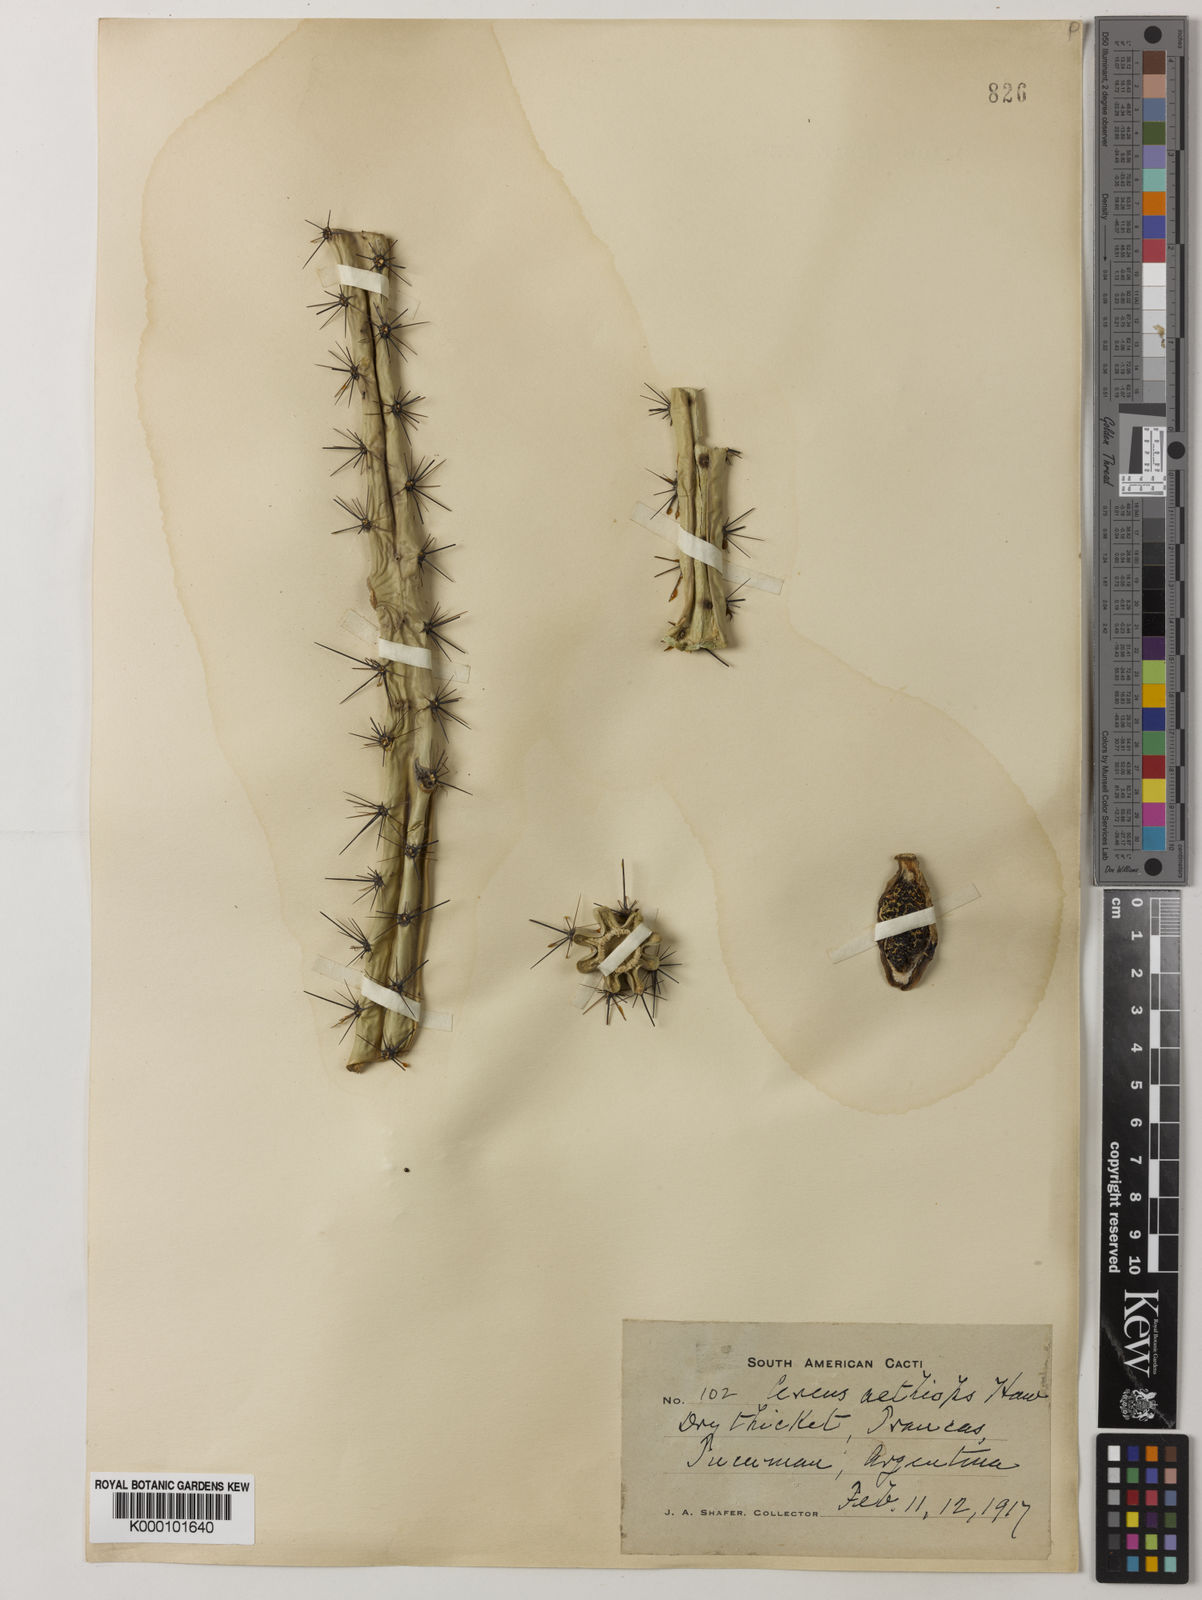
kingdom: Plantae
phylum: Tracheophyta
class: Magnoliopsida
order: Caryophyllales
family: Cactaceae
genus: Cereus
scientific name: Cereus aethiops
